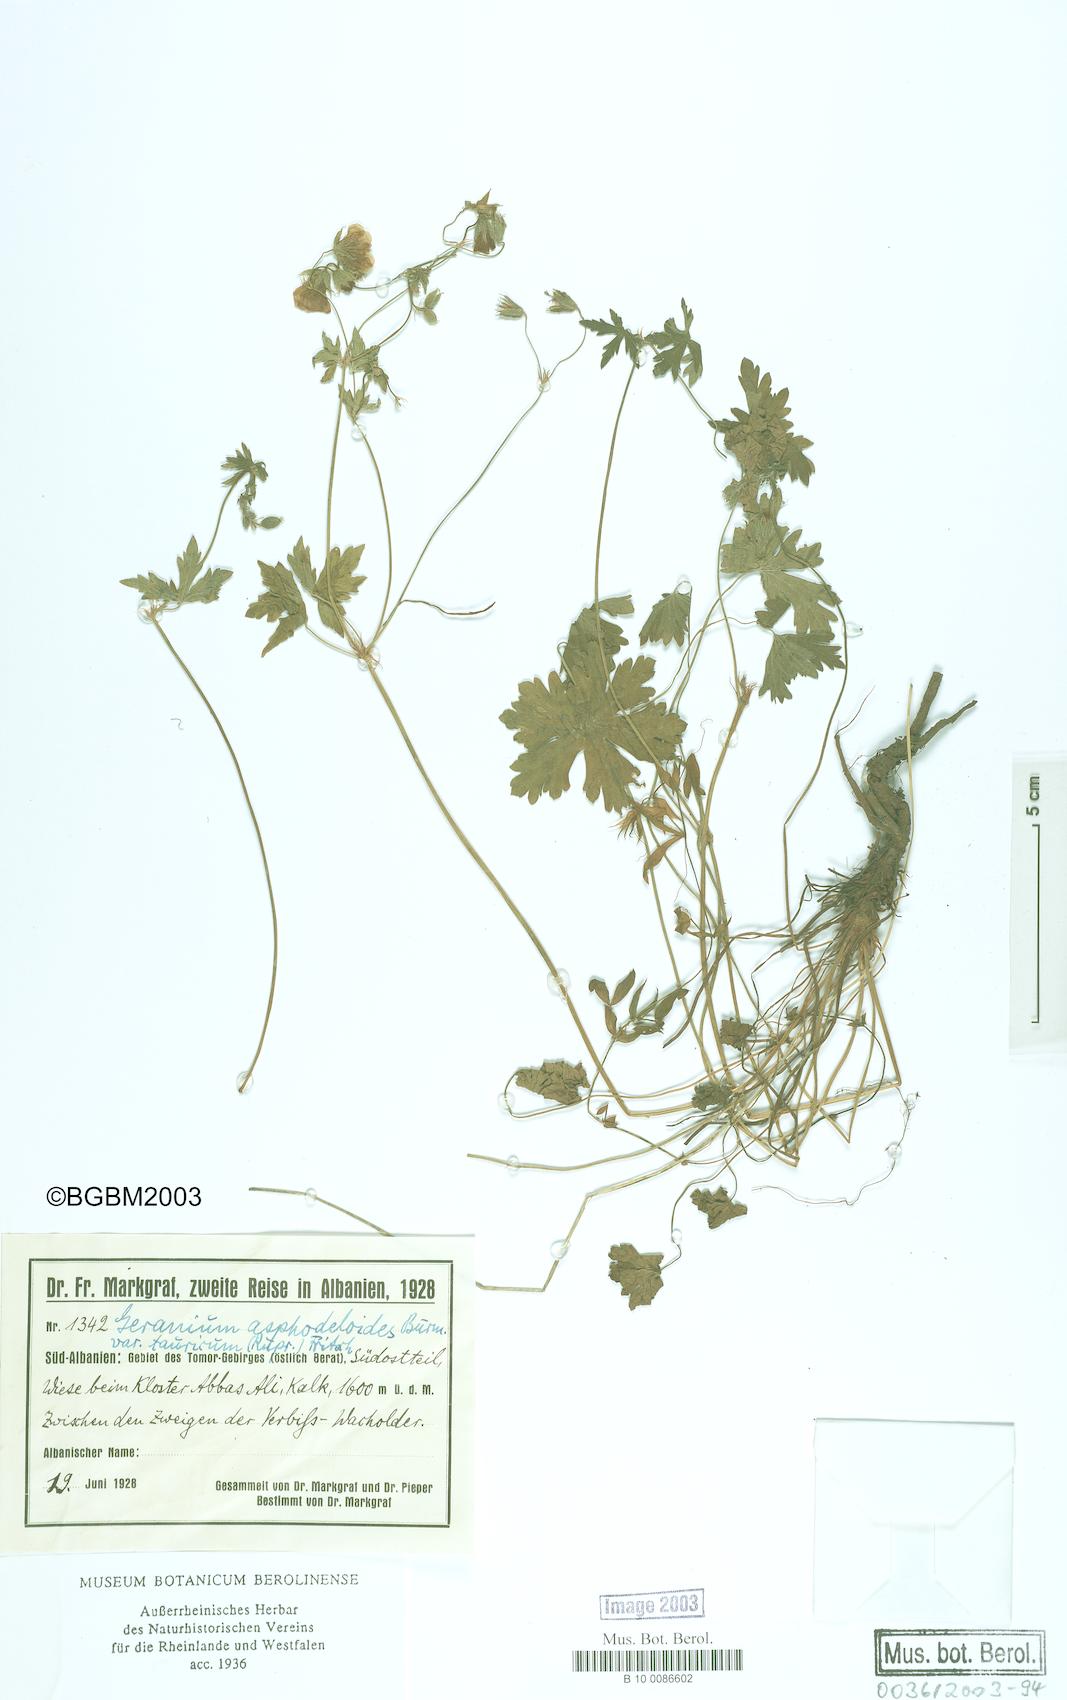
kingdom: Plantae
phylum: Tracheophyta
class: Magnoliopsida
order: Geraniales
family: Geraniaceae
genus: Geranium
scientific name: Geranium asphodeloides
